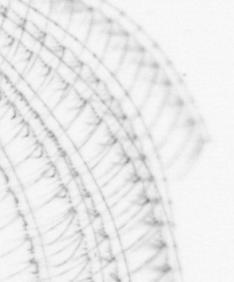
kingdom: Animalia
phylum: Arthropoda
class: Maxillopoda
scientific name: Maxillopoda
